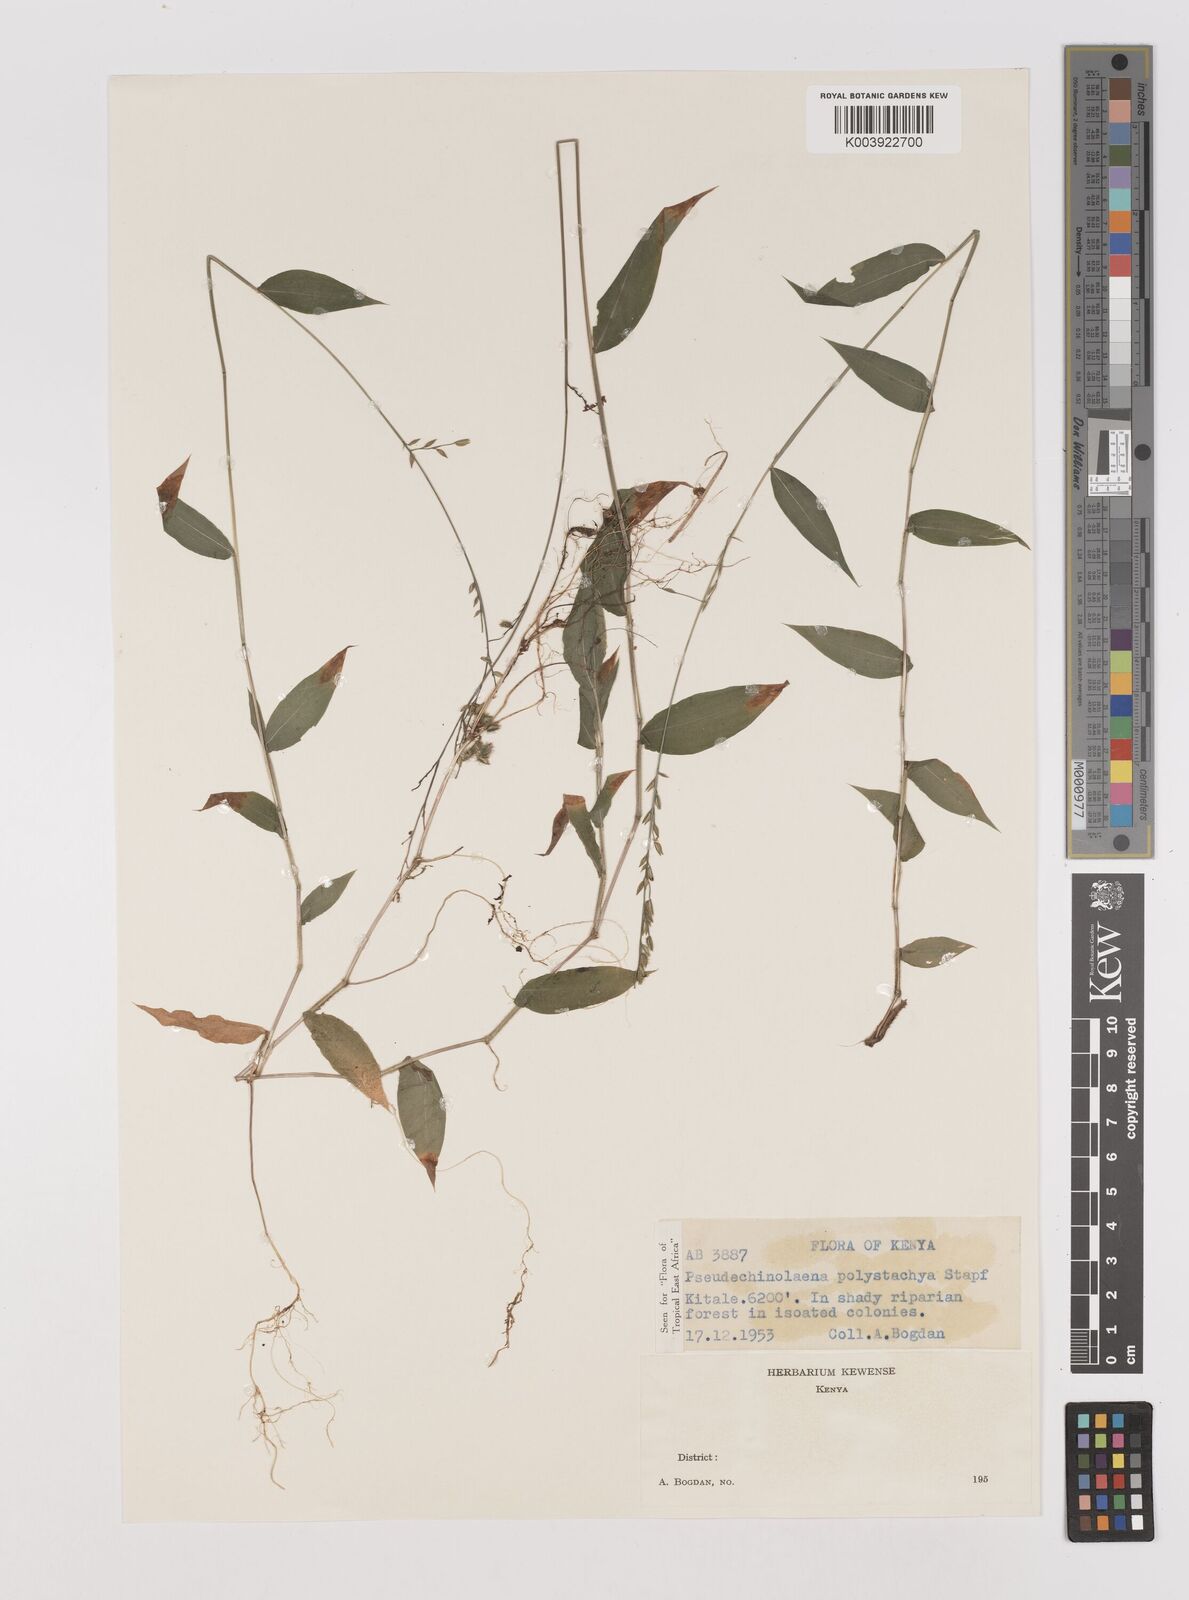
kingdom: Plantae
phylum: Tracheophyta
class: Liliopsida
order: Poales
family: Poaceae
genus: Pseudechinolaena
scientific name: Pseudechinolaena polystachya
